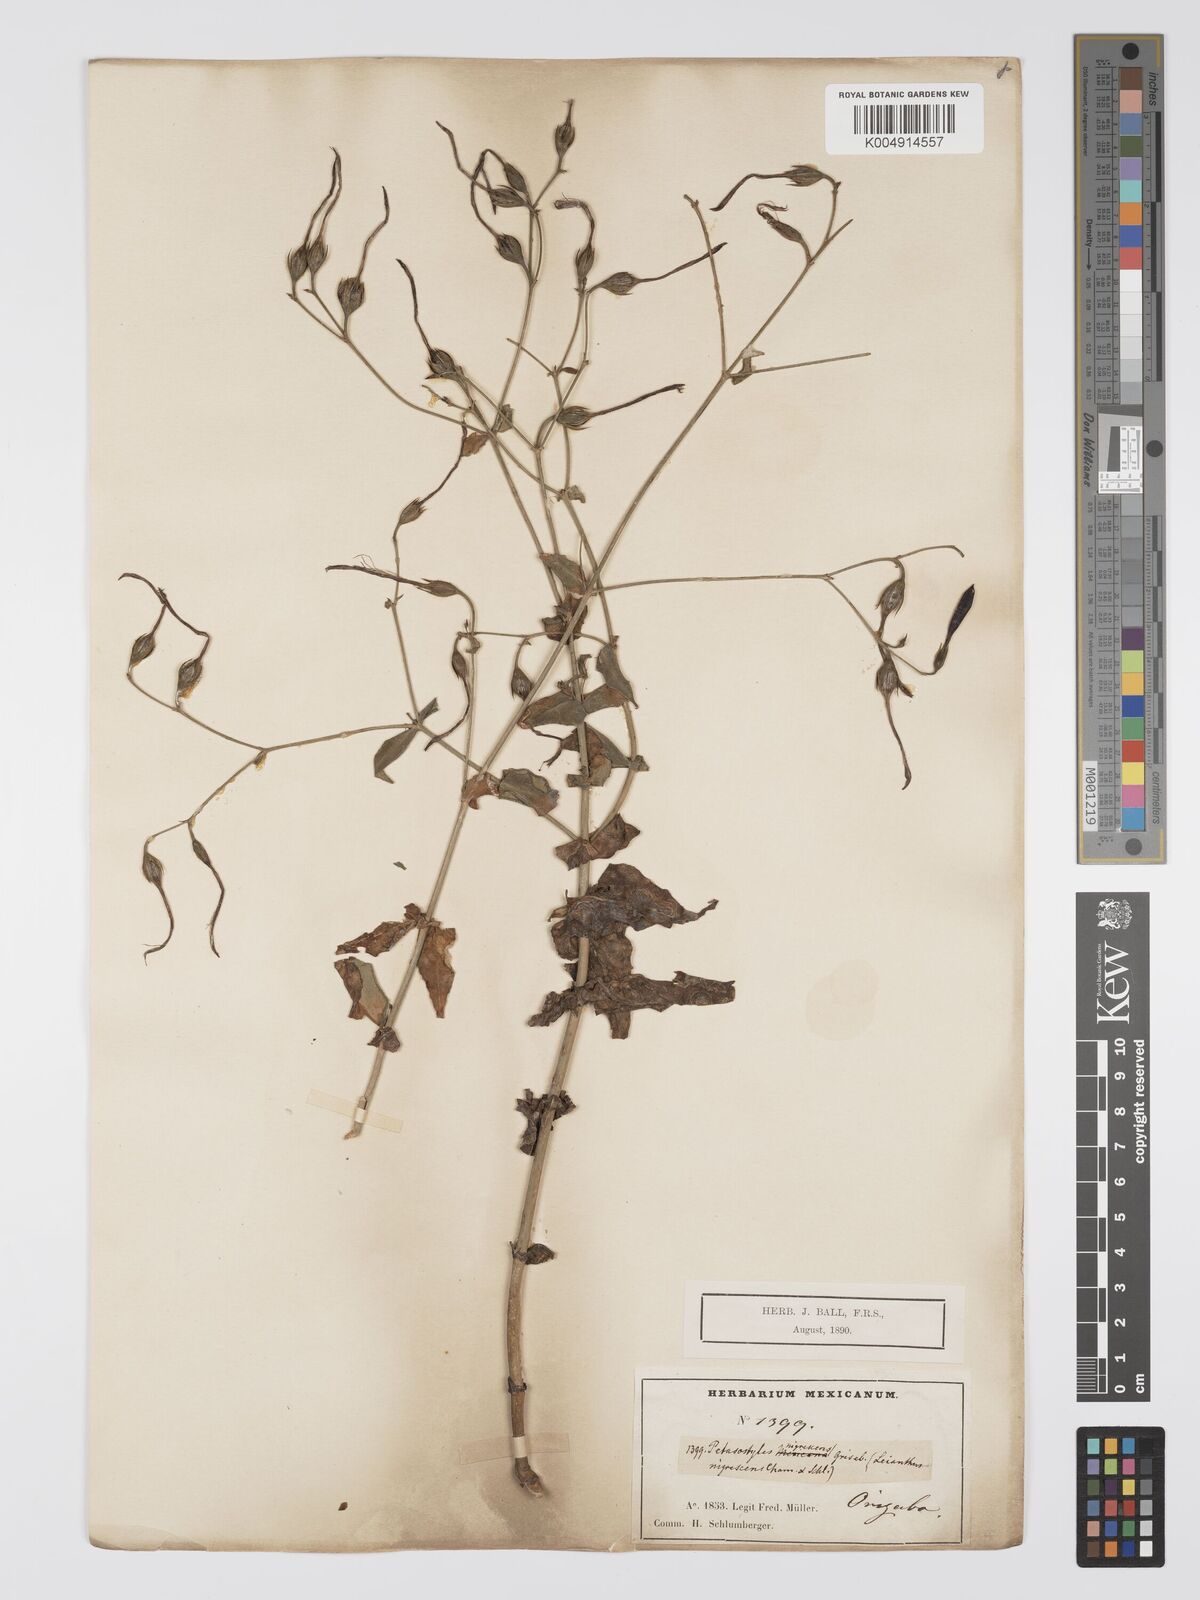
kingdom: Plantae
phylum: Tracheophyta
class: Magnoliopsida
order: Gentianales
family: Gentianaceae
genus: Lisianthus
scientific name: Lisianthus nigrescens
